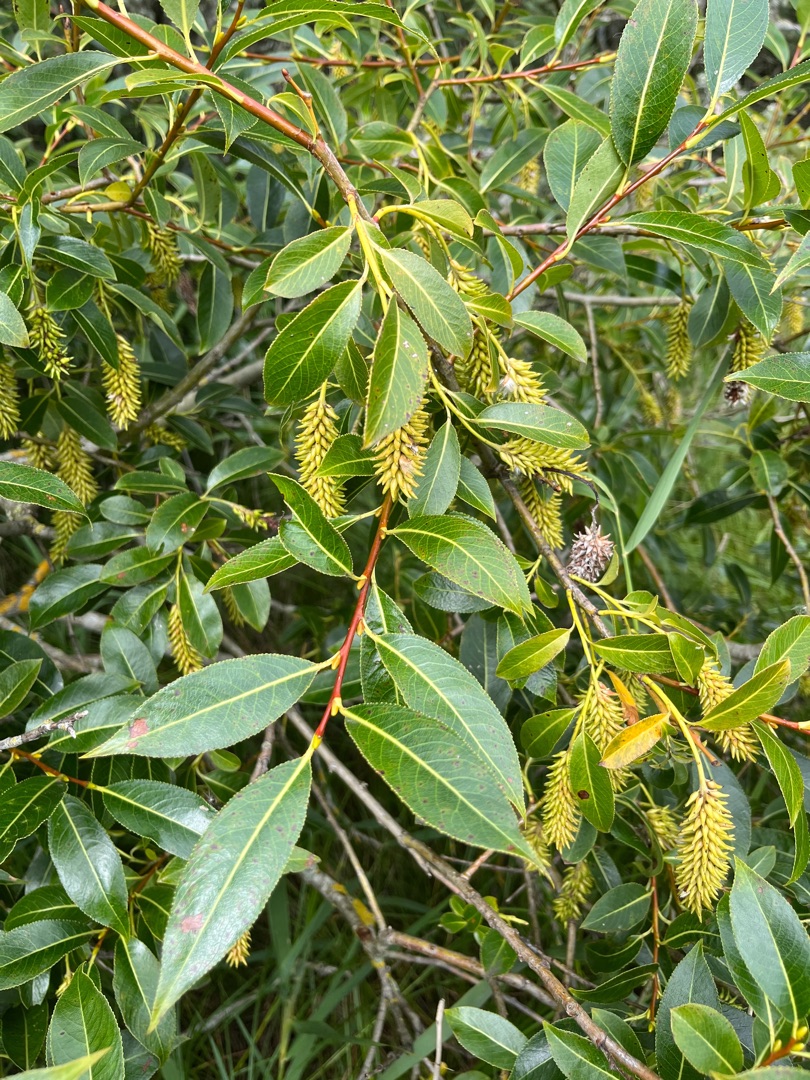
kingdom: Plantae
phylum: Tracheophyta
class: Magnoliopsida
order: Malpighiales
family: Salicaceae
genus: Salix
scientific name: Salix pentandra
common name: Femhannet pil
